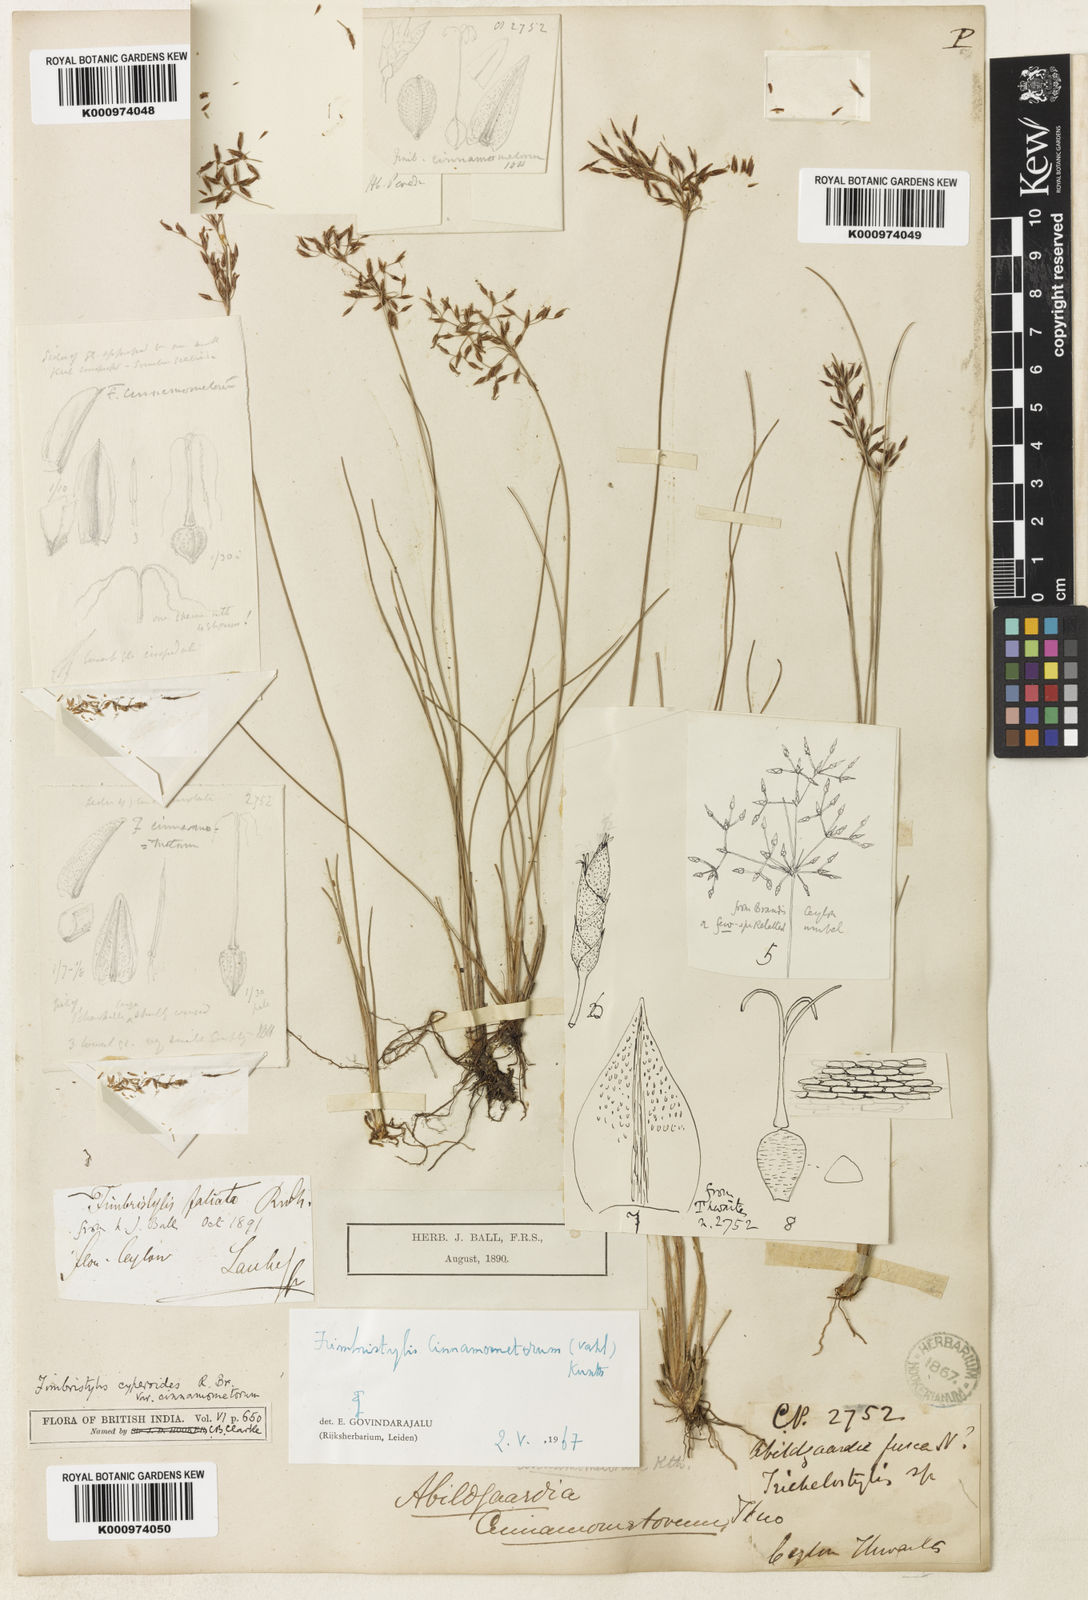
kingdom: Plantae
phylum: Tracheophyta
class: Liliopsida
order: Poales
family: Cyperaceae
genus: Fimbristylis
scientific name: Fimbristylis cinnamometorum
